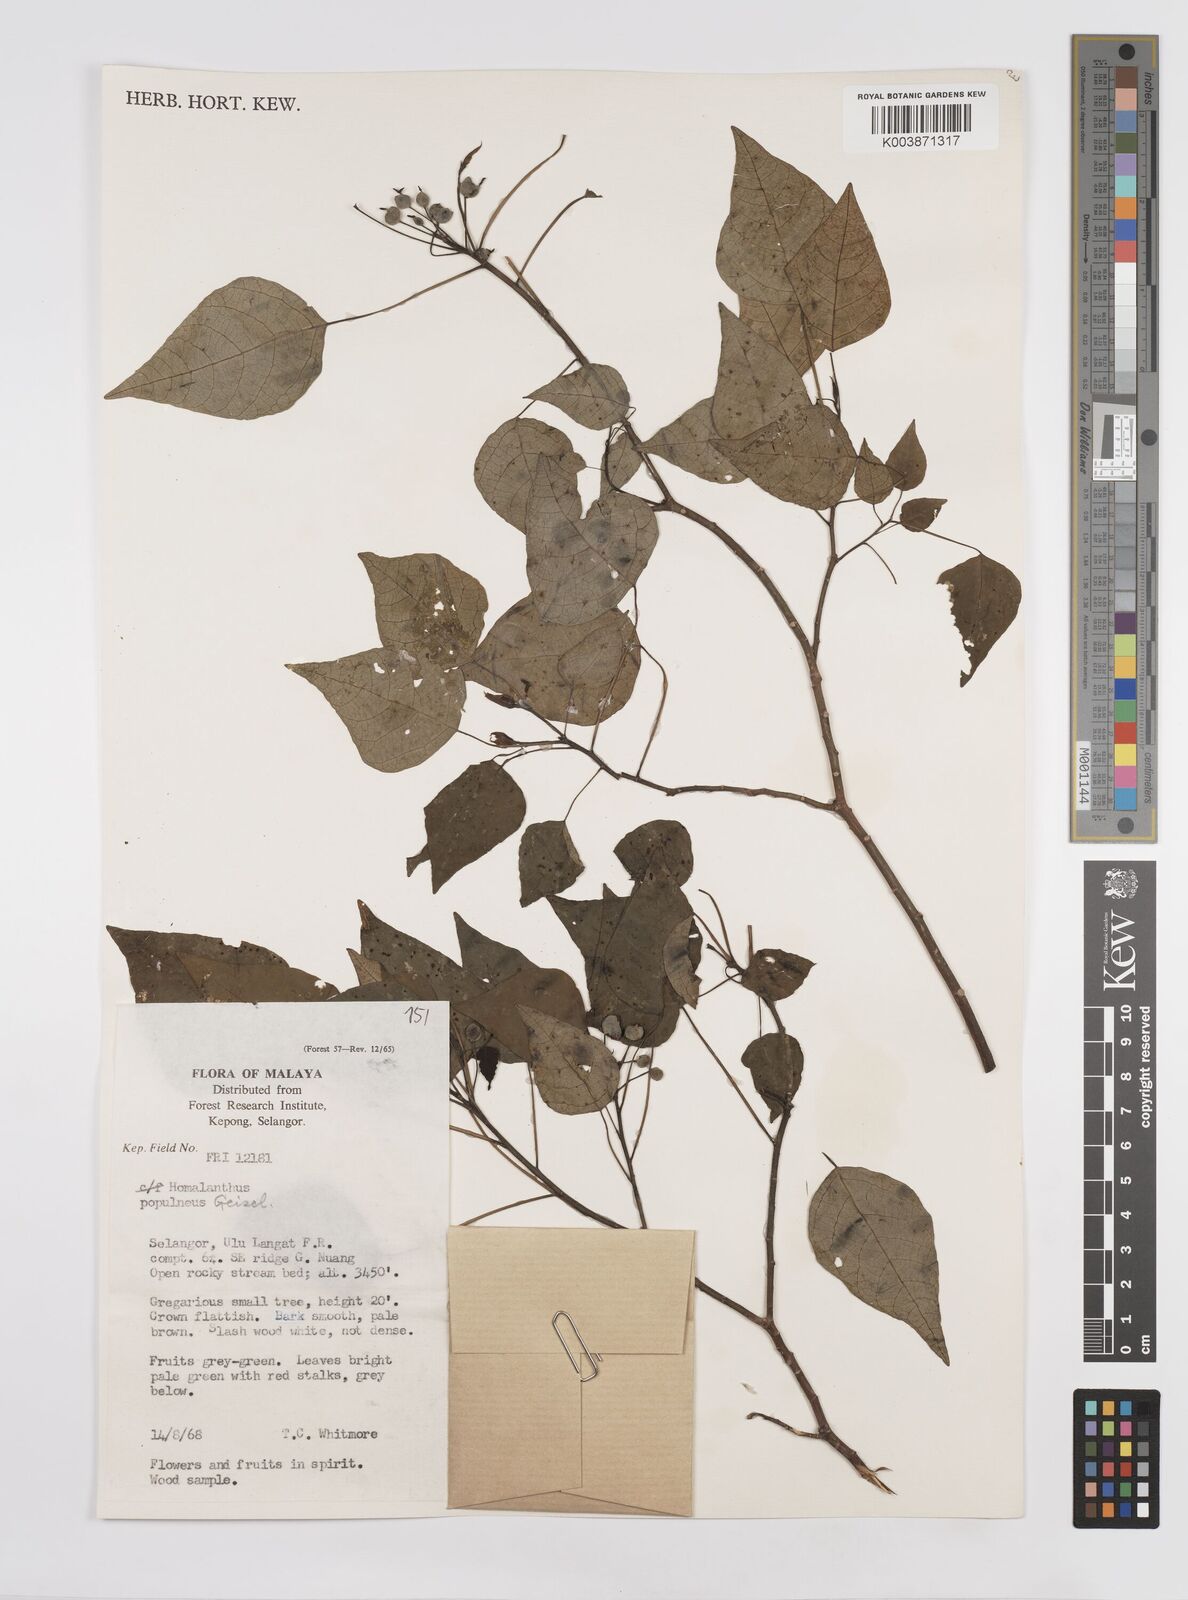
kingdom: Plantae
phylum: Tracheophyta
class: Magnoliopsida
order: Malpighiales
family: Euphorbiaceae
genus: Homalanthus
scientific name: Homalanthus populneus
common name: Spurge
